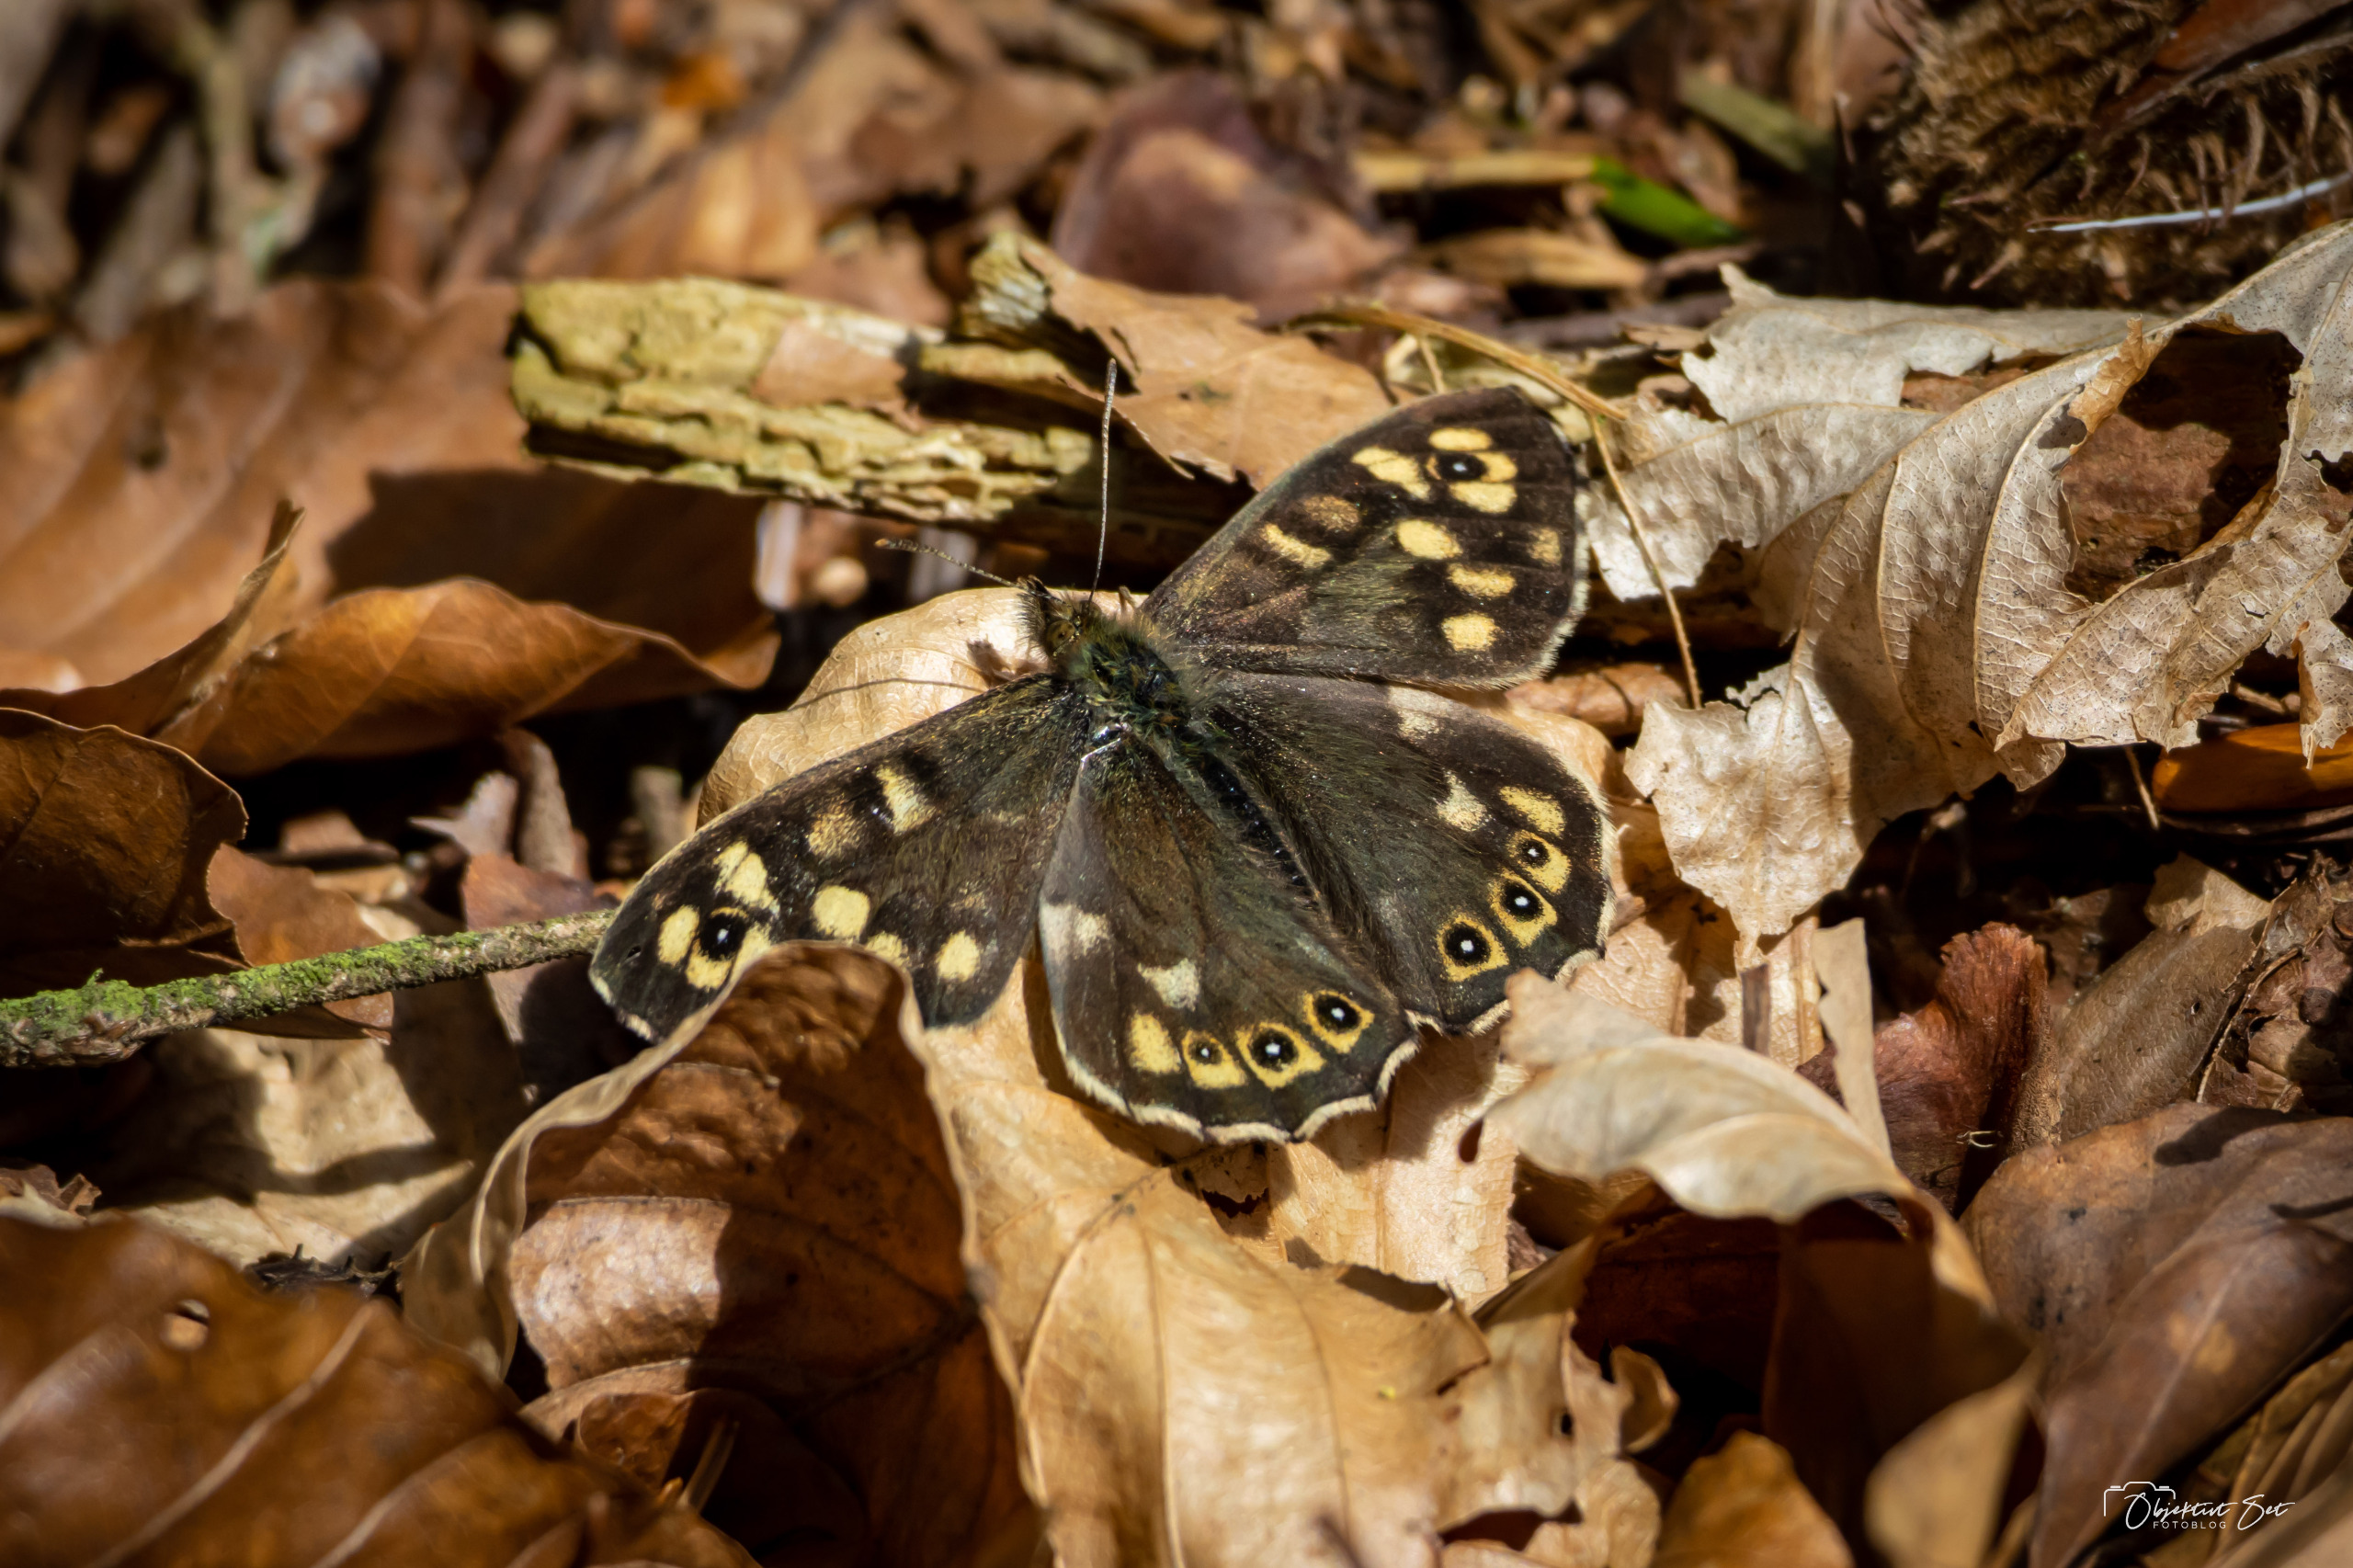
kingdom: Animalia
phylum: Arthropoda
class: Insecta
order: Lepidoptera
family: Nymphalidae
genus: Pararge
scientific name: Pararge aegeria
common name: Skovrandøje
